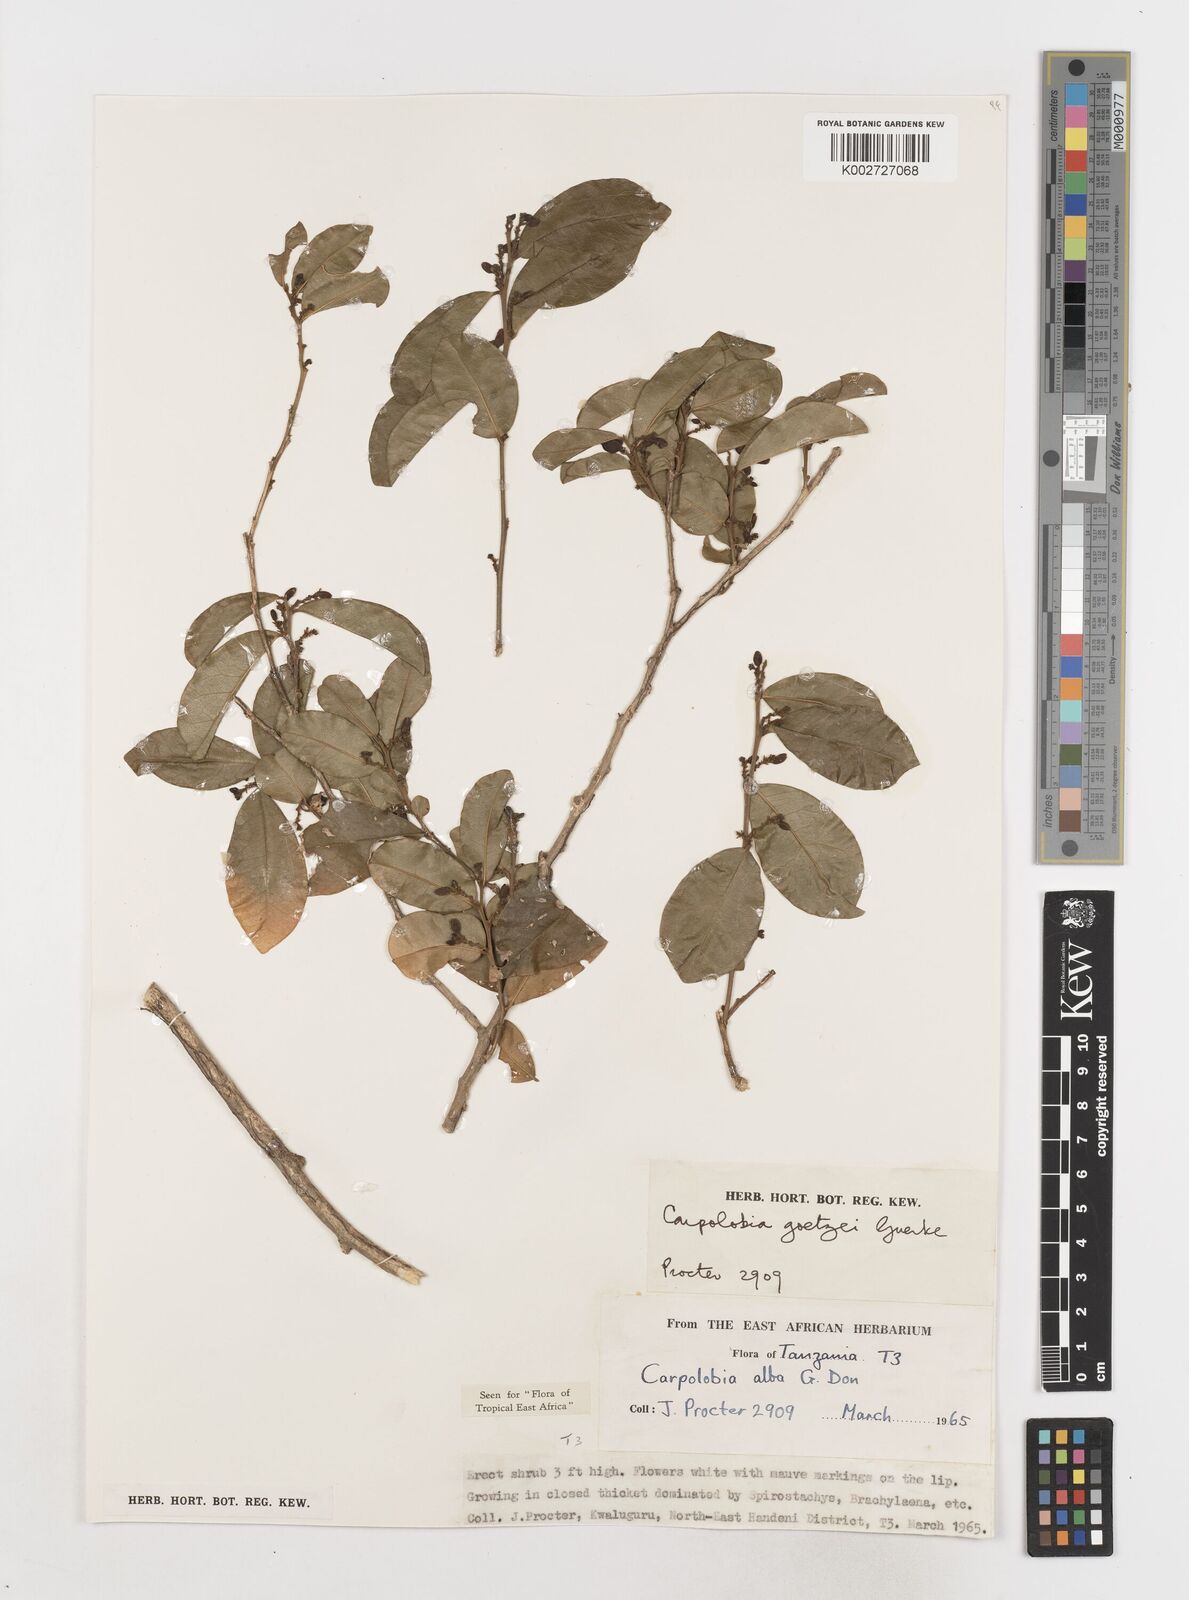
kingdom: Plantae
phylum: Tracheophyta
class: Magnoliopsida
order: Fabales
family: Polygalaceae
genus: Carpolobia
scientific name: Carpolobia goetzei
